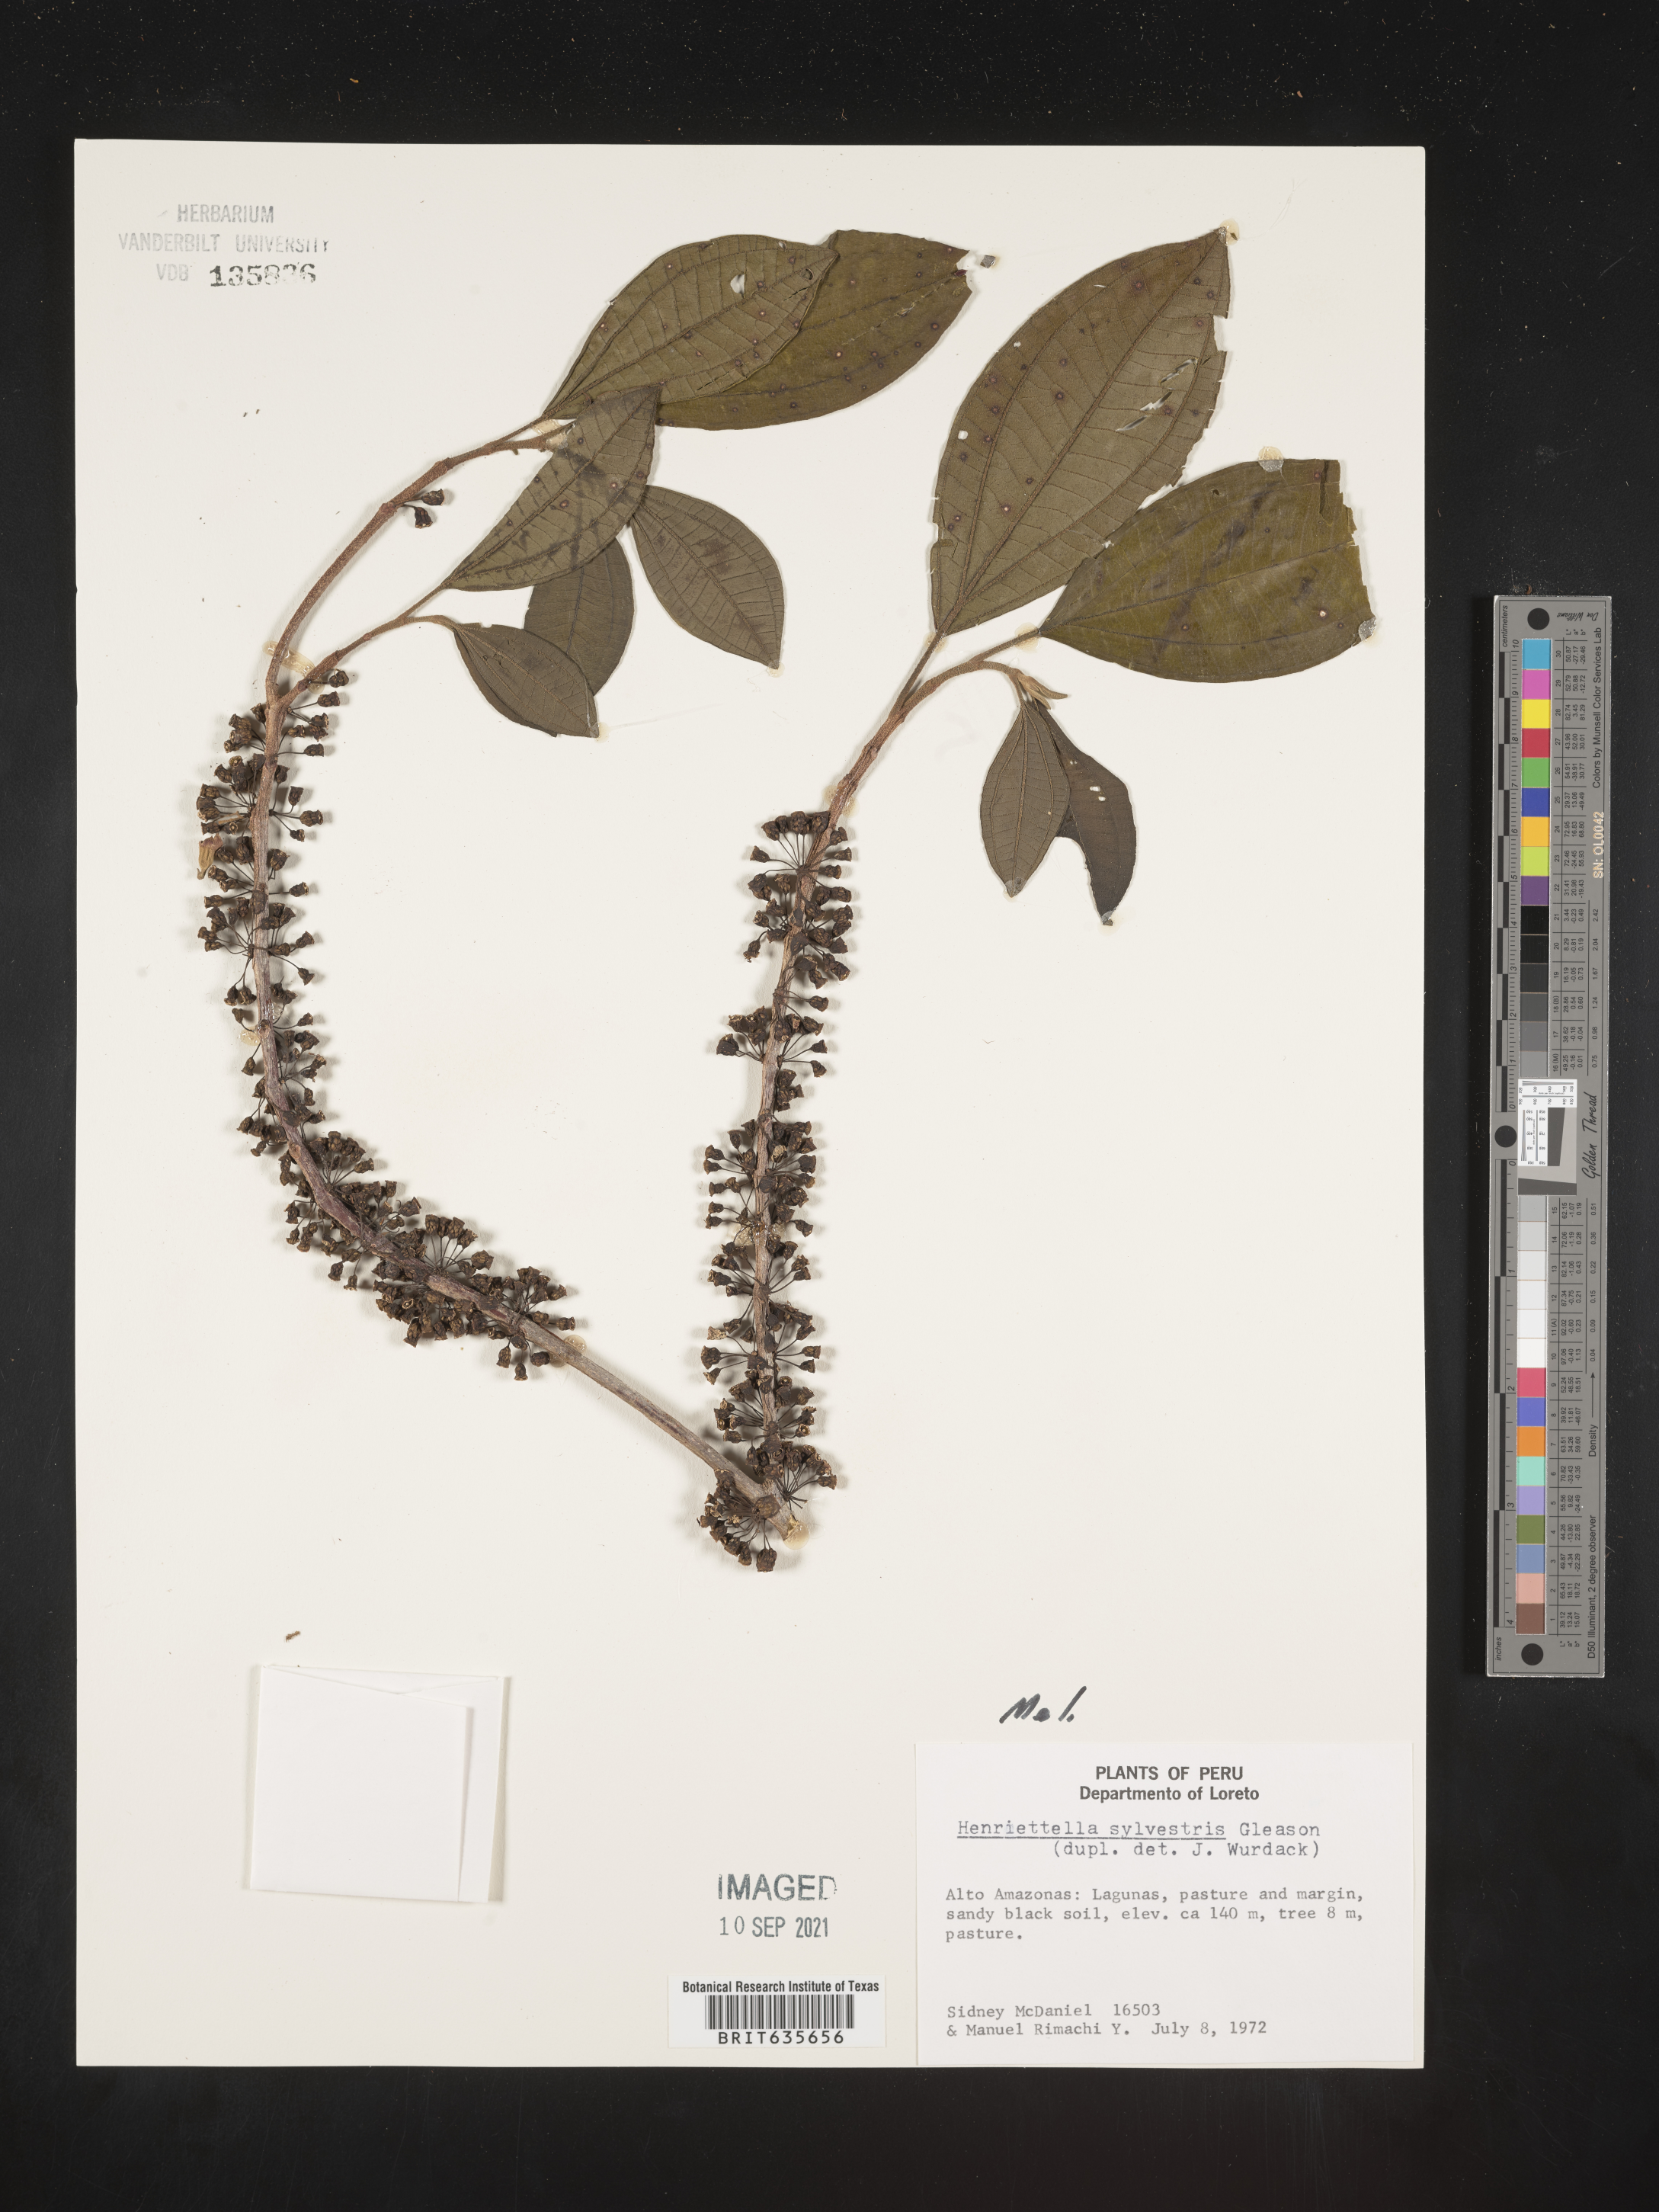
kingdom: Plantae
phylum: Tracheophyta
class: Magnoliopsida
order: Myrtales
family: Melastomataceae
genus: Henriettea
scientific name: Henriettea
